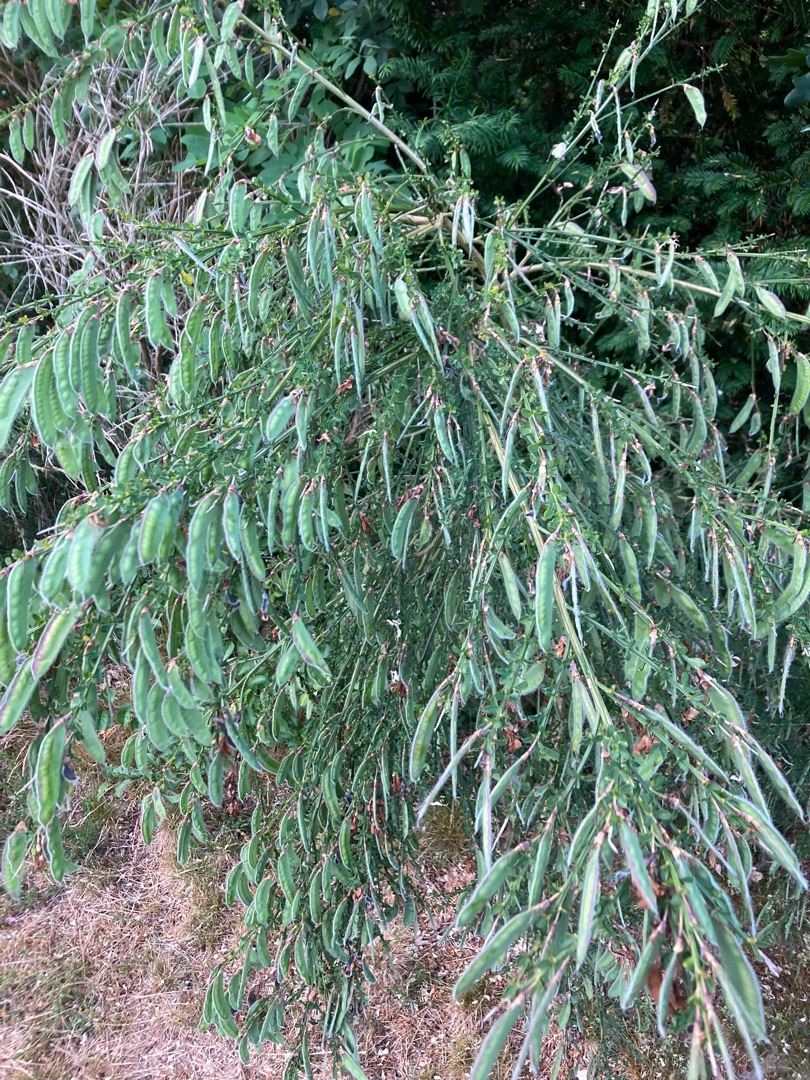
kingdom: Plantae
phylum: Tracheophyta
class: Magnoliopsida
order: Fabales
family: Fabaceae
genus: Cytisus
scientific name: Cytisus scoparius
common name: Almindelig gyvel
